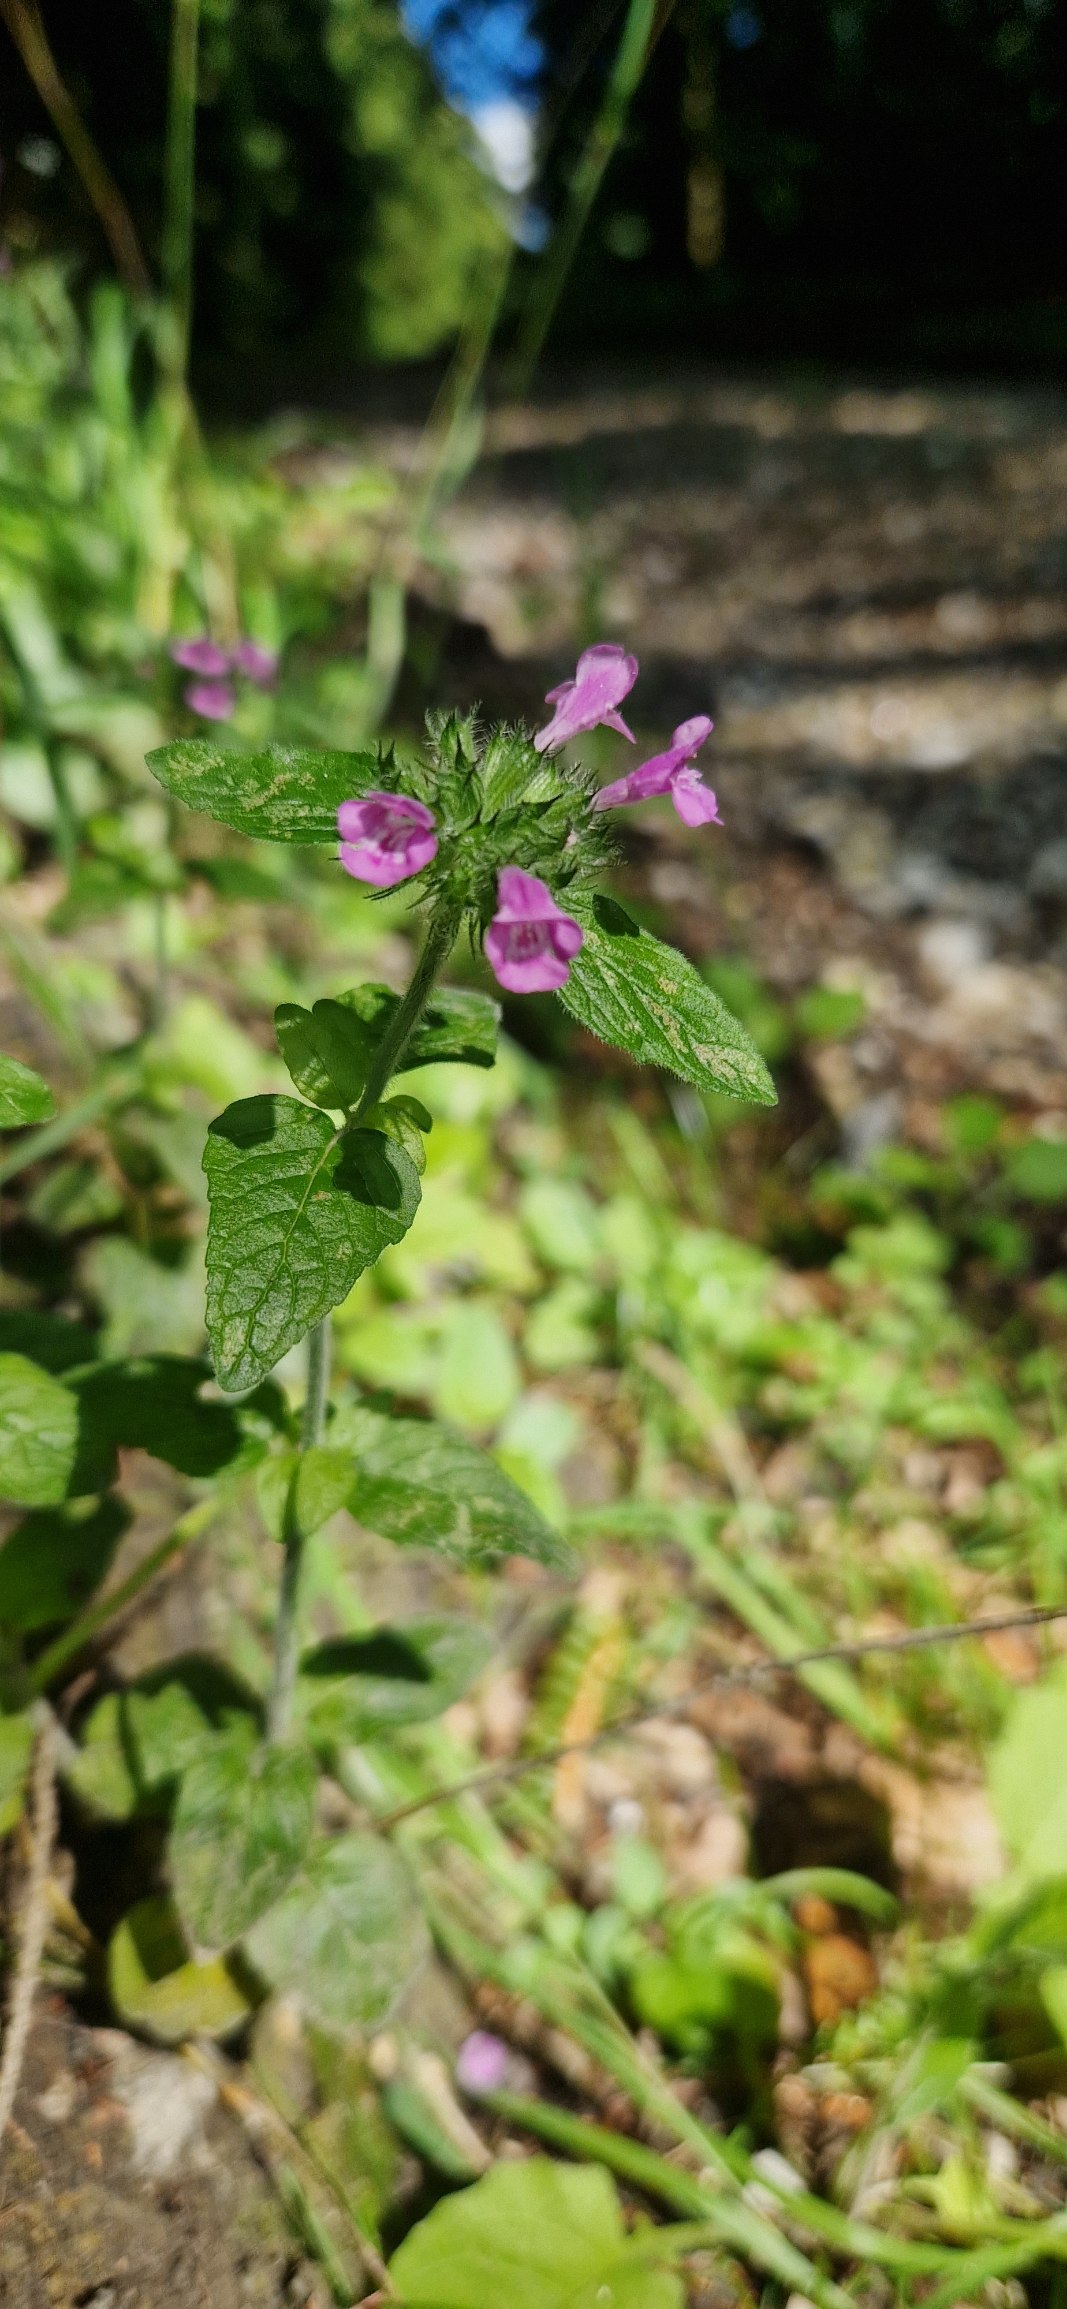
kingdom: Plantae
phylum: Tracheophyta
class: Magnoliopsida
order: Lamiales
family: Lamiaceae
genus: Clinopodium
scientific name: Clinopodium vulgare
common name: Kransbørste
